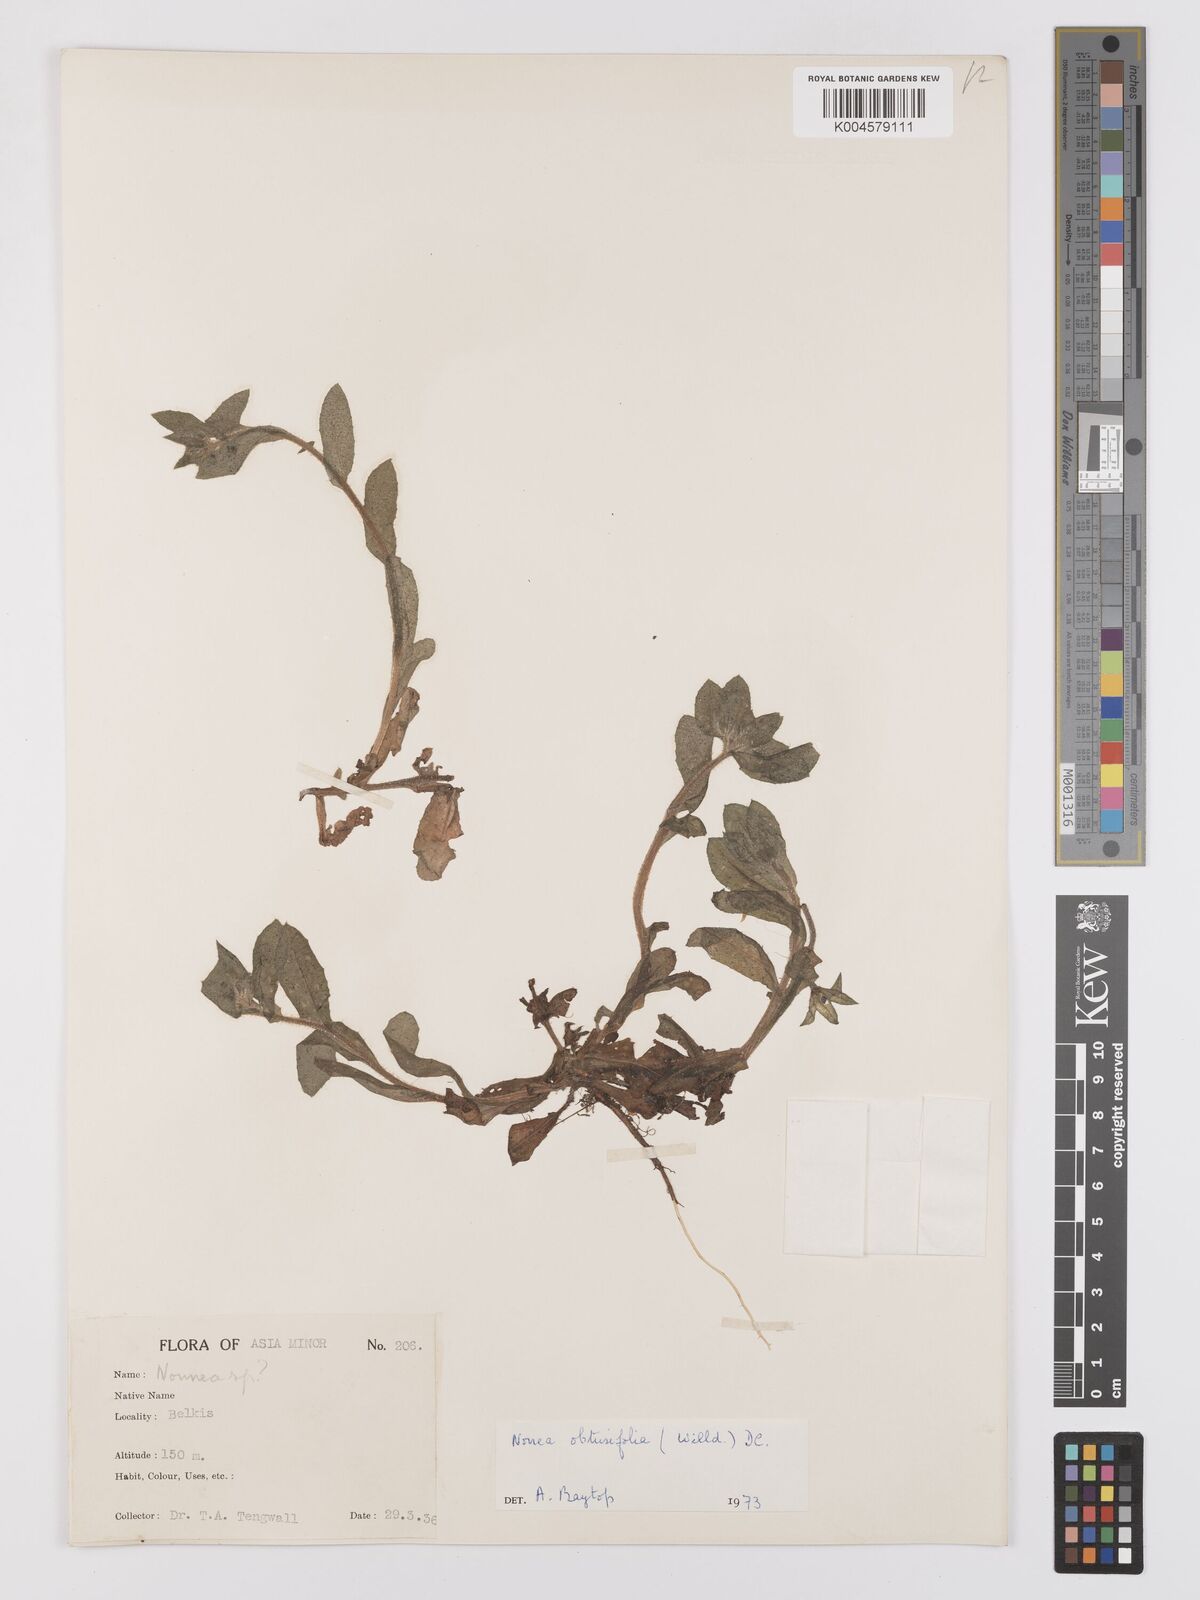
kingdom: Plantae
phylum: Tracheophyta
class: Magnoliopsida
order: Boraginales
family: Boraginaceae
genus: Nonea
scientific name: Nonea
